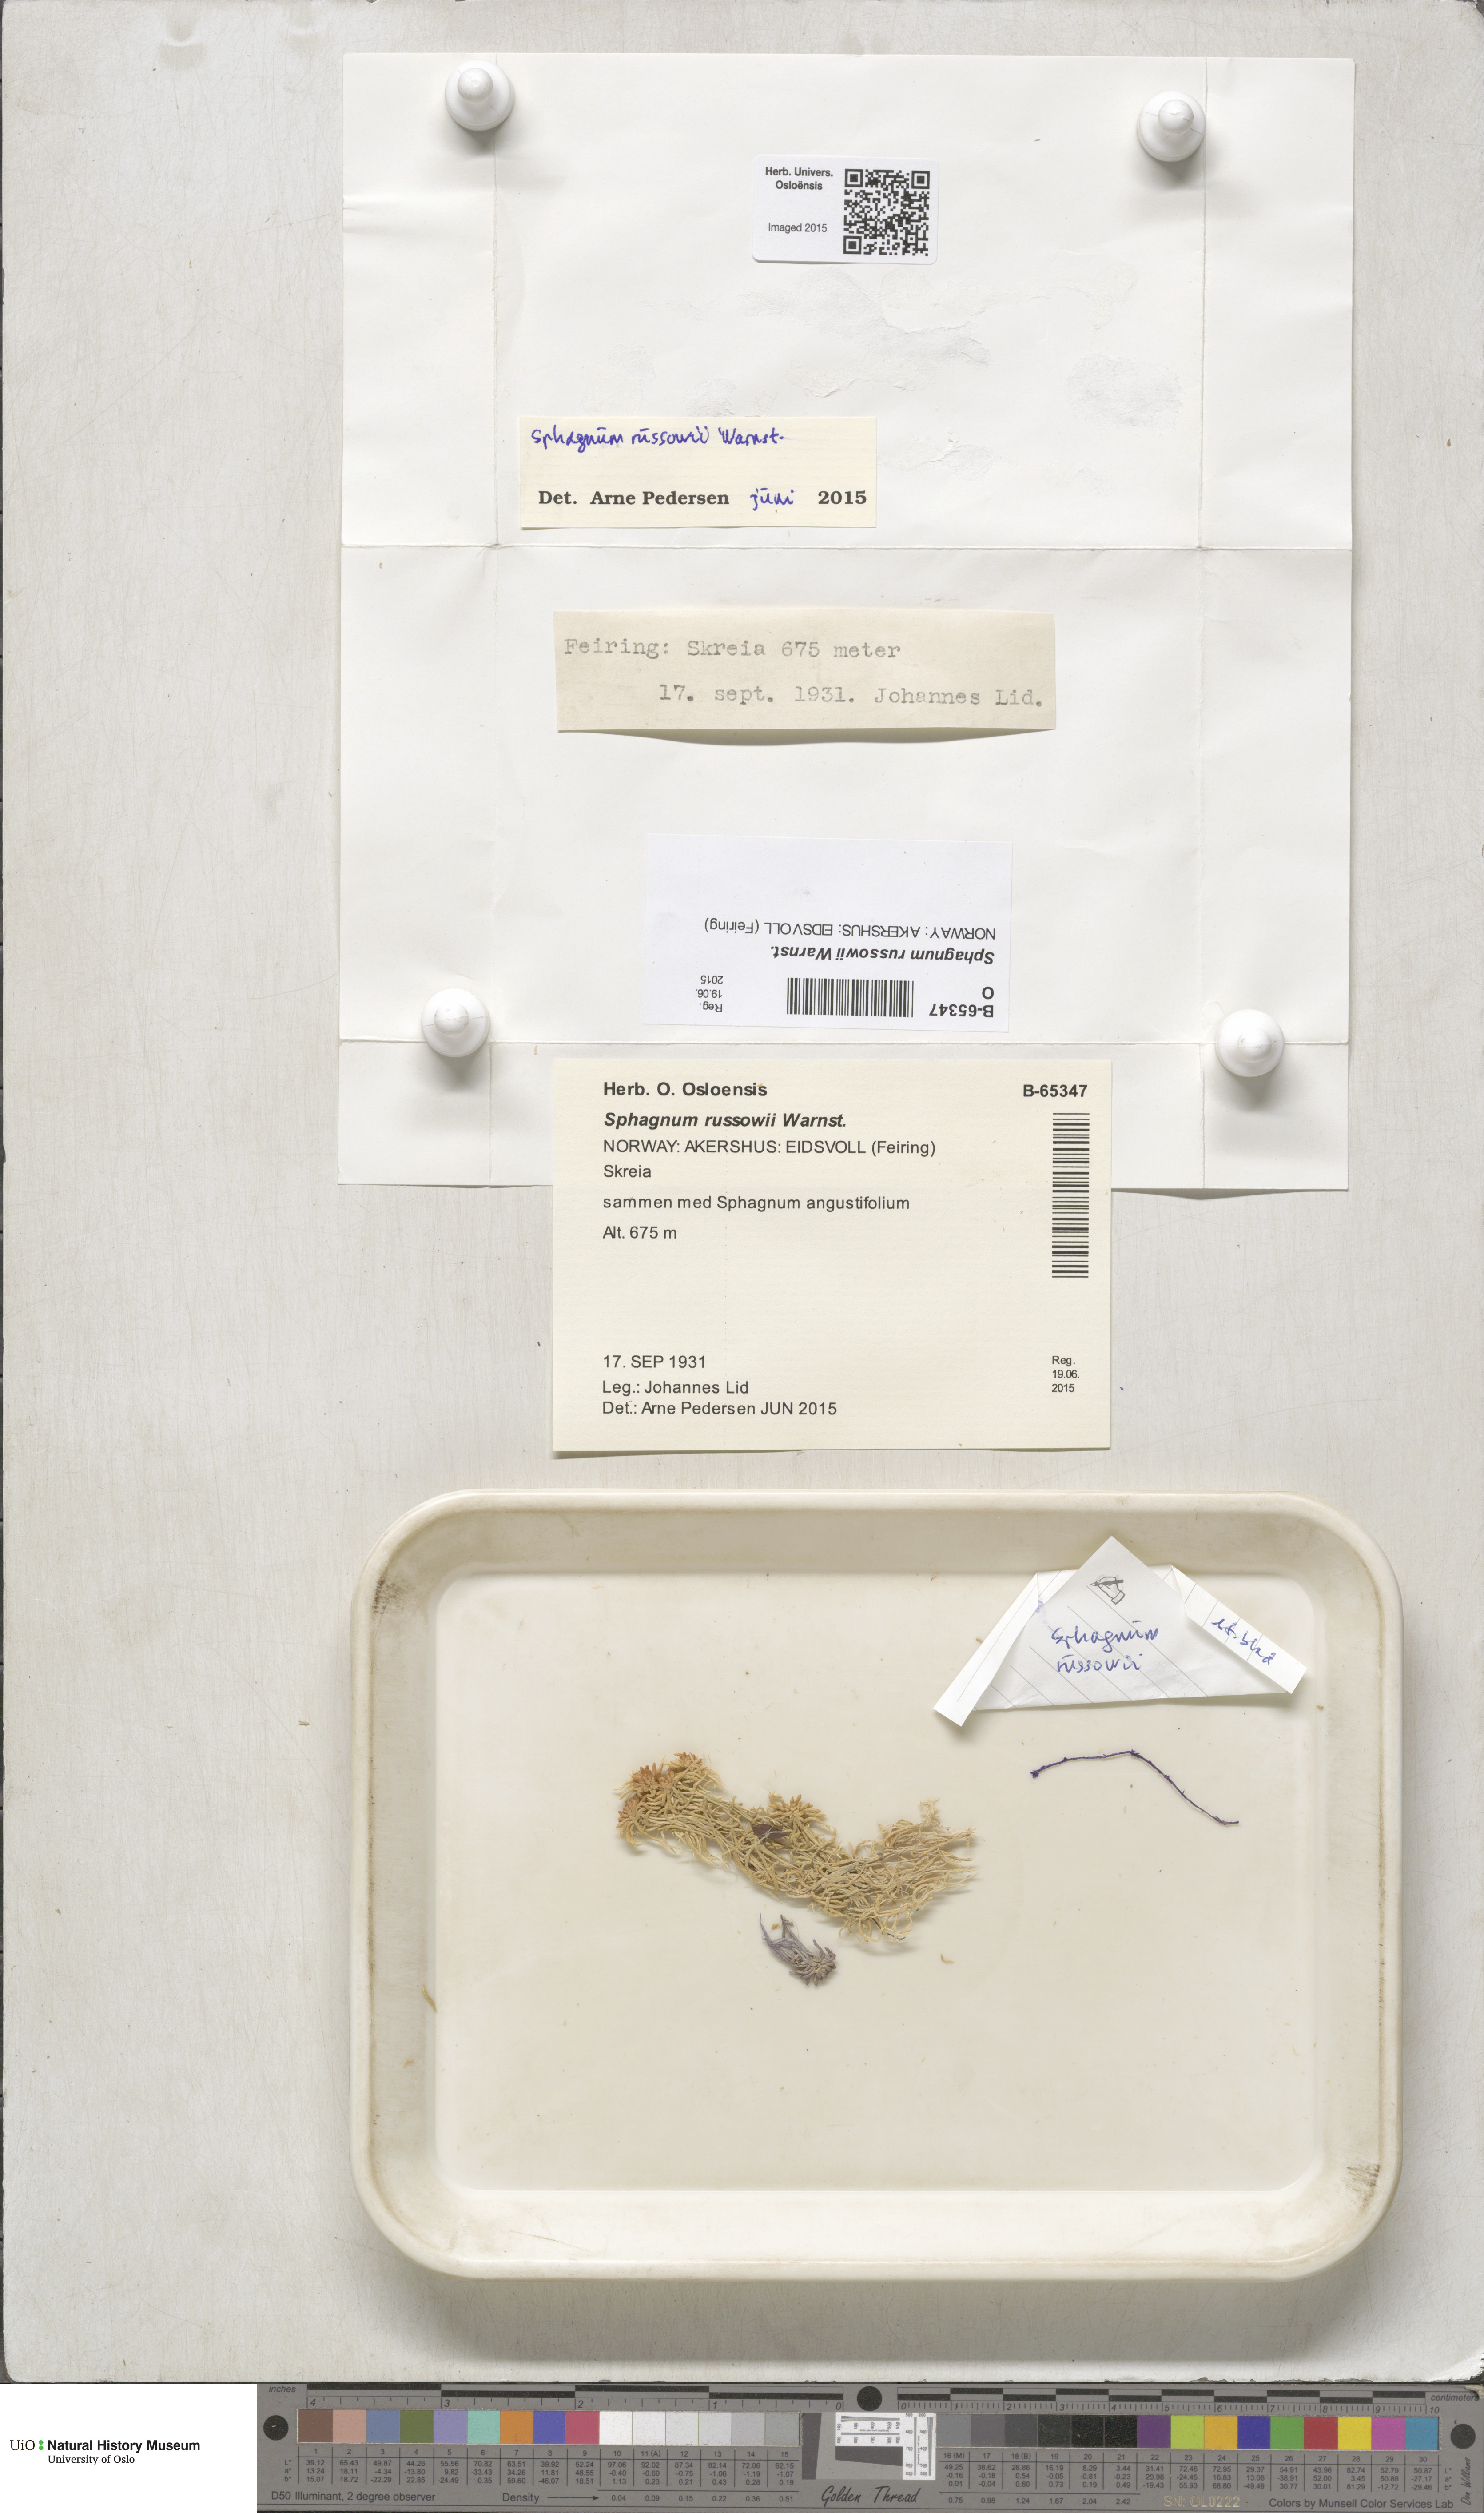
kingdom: Plantae
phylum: Bryophyta
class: Sphagnopsida
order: Sphagnales
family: Sphagnaceae
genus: Sphagnum
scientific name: Sphagnum russowii
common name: Russow's peat moss
